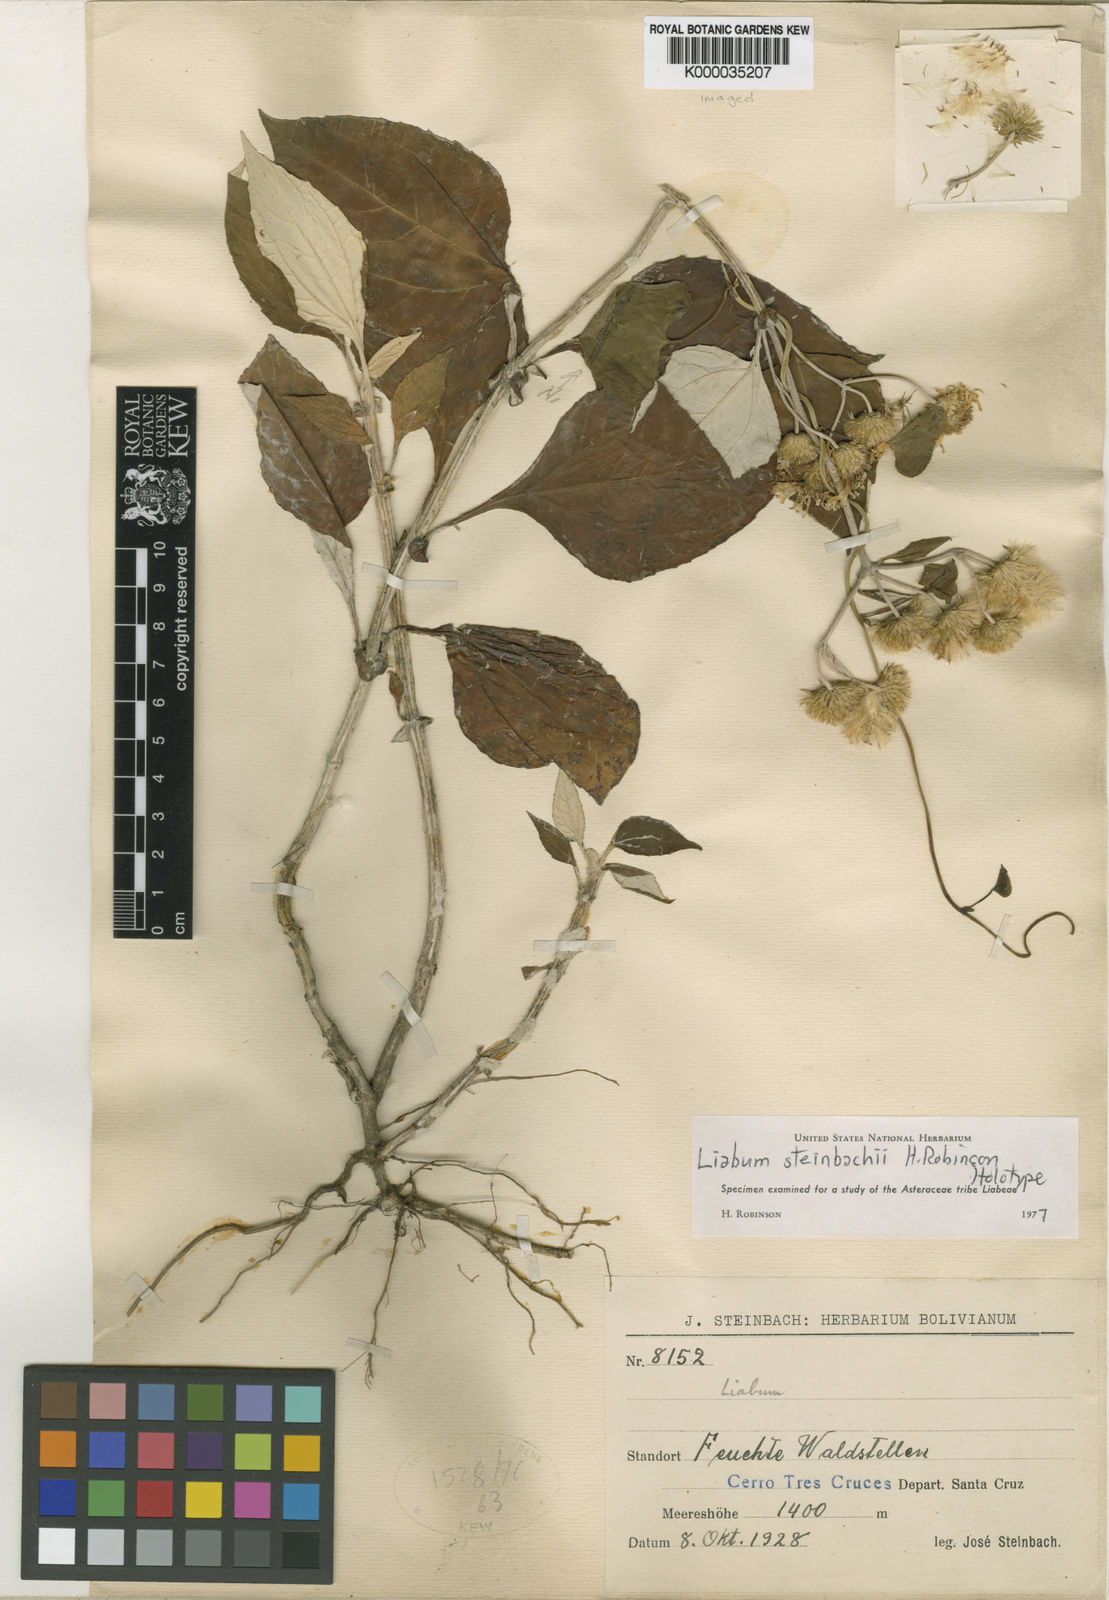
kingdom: Plantae
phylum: Tracheophyta
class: Magnoliopsida
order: Asterales
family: Asteraceae
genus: Liabum
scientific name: Liabum steinbachii
